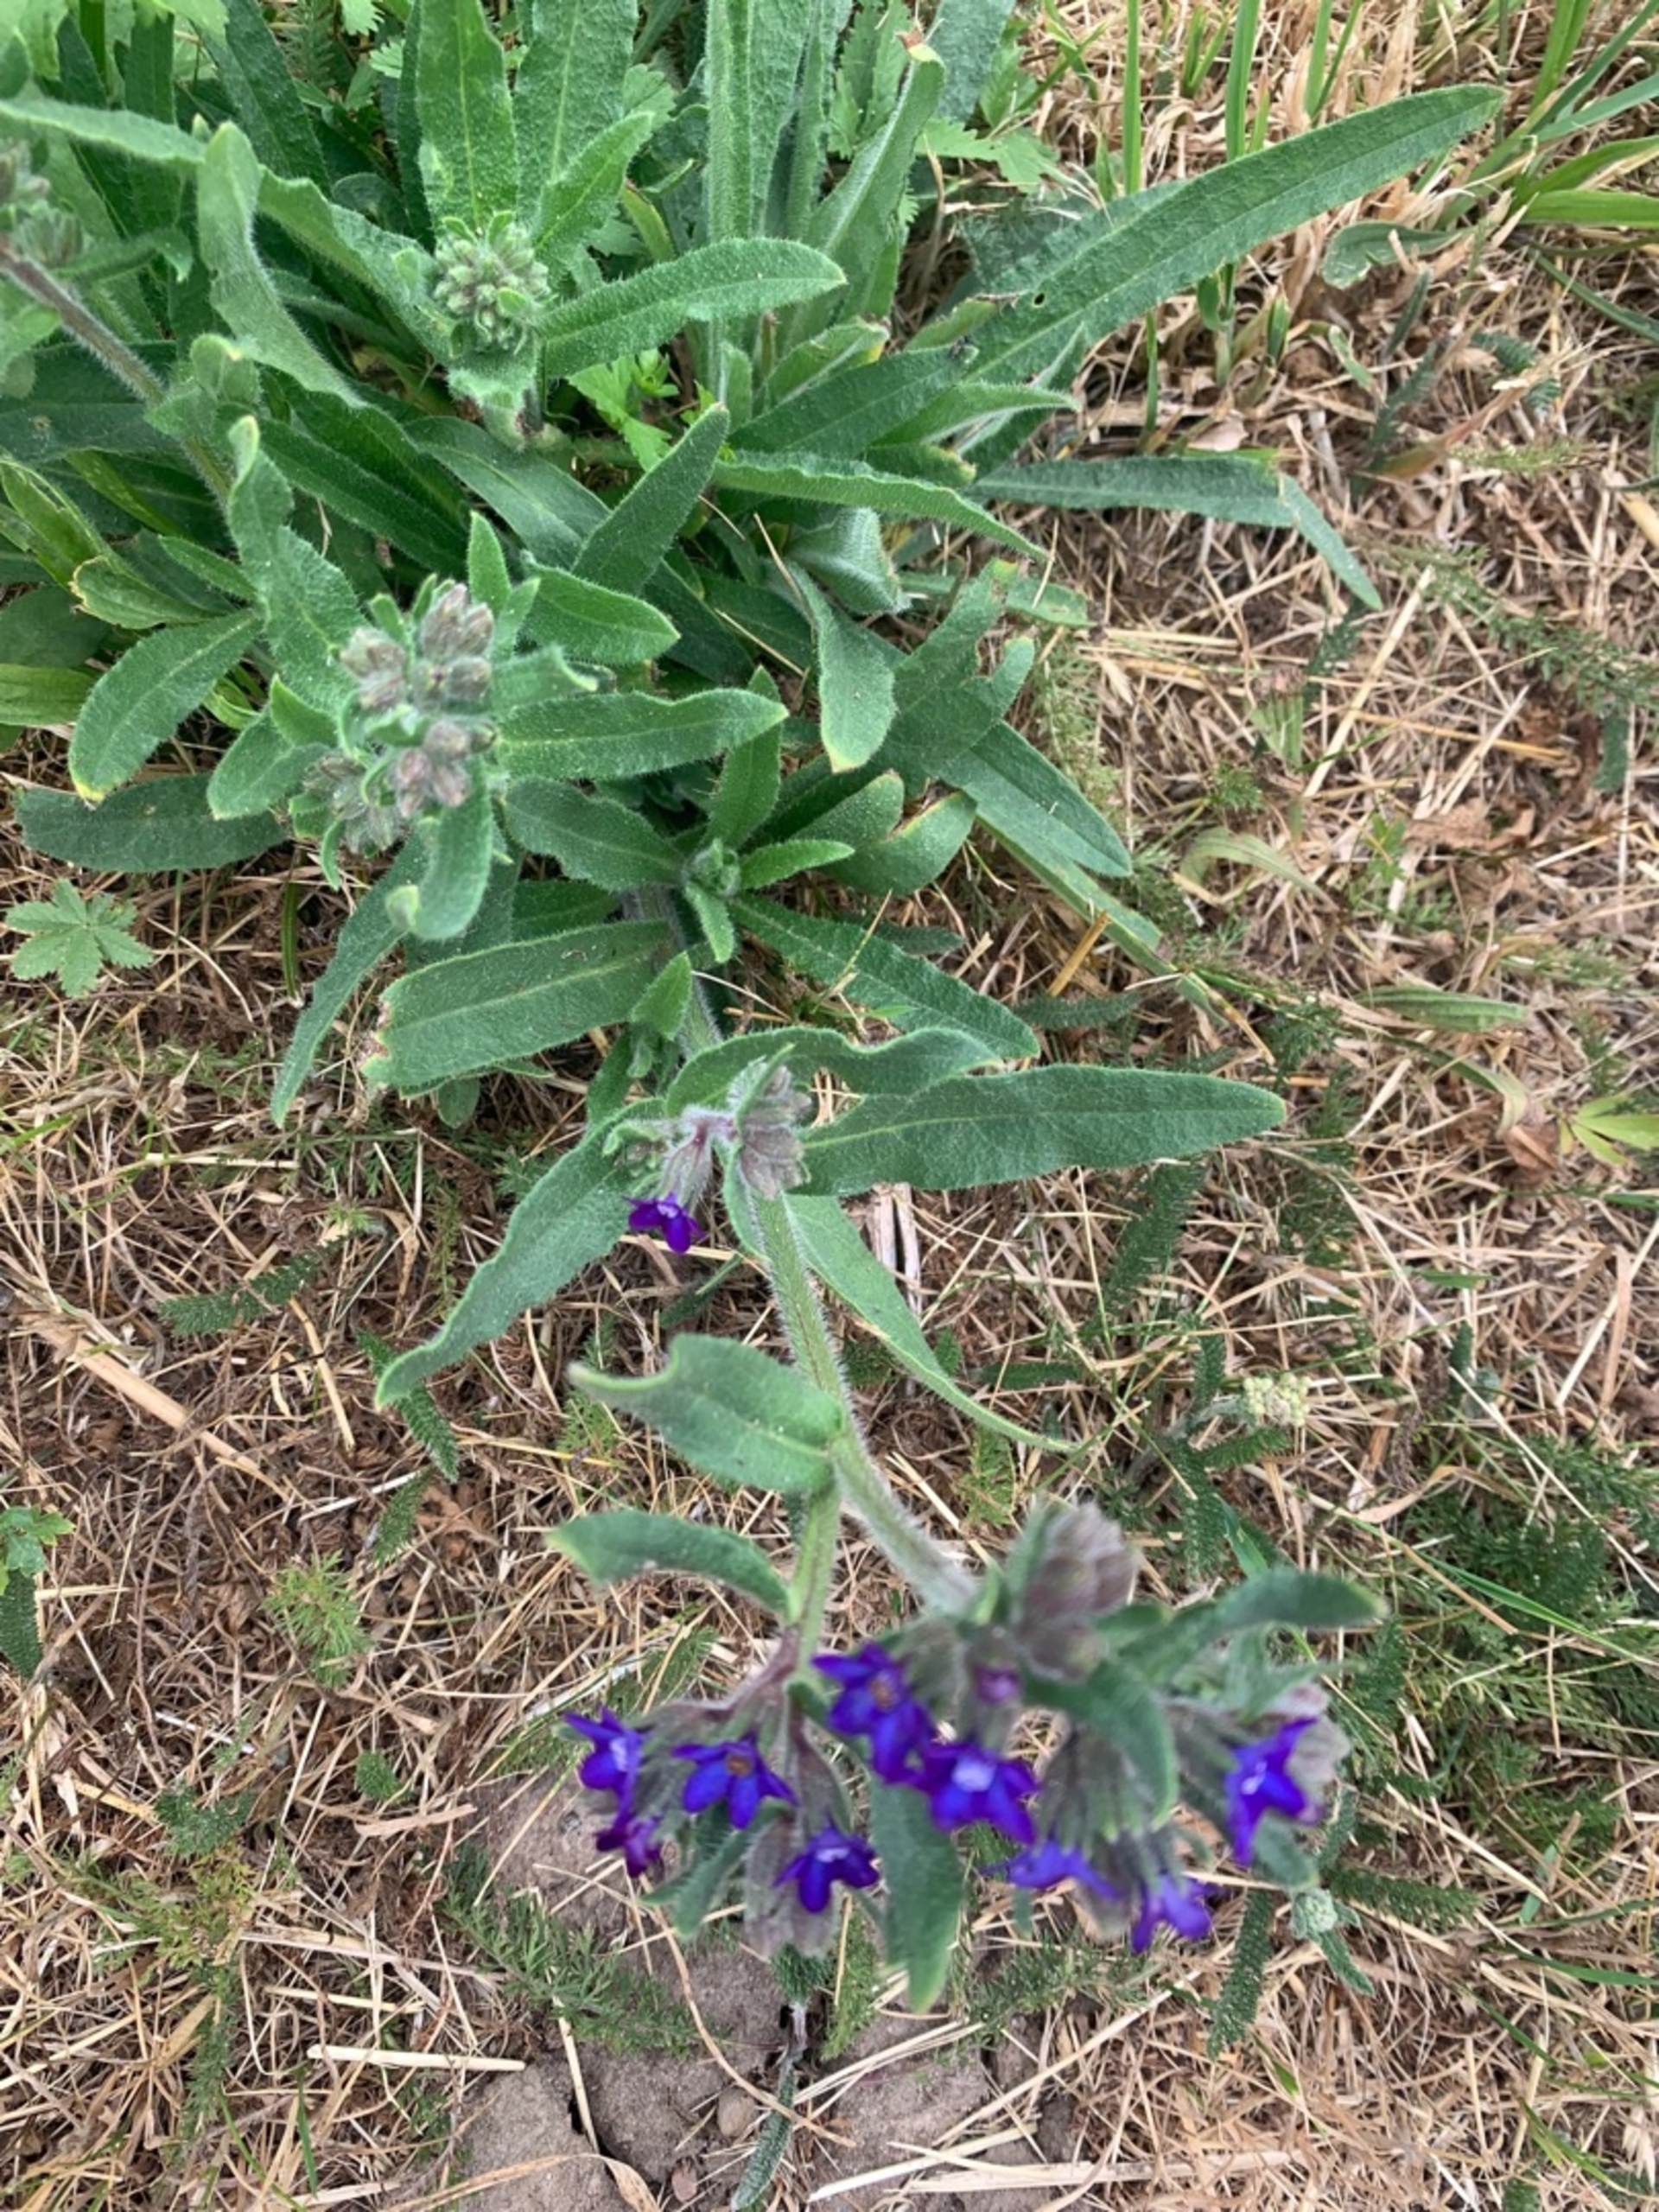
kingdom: Plantae
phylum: Tracheophyta
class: Magnoliopsida
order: Boraginales
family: Boraginaceae
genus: Anchusa
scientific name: Anchusa officinalis
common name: Læge-oksetunge
